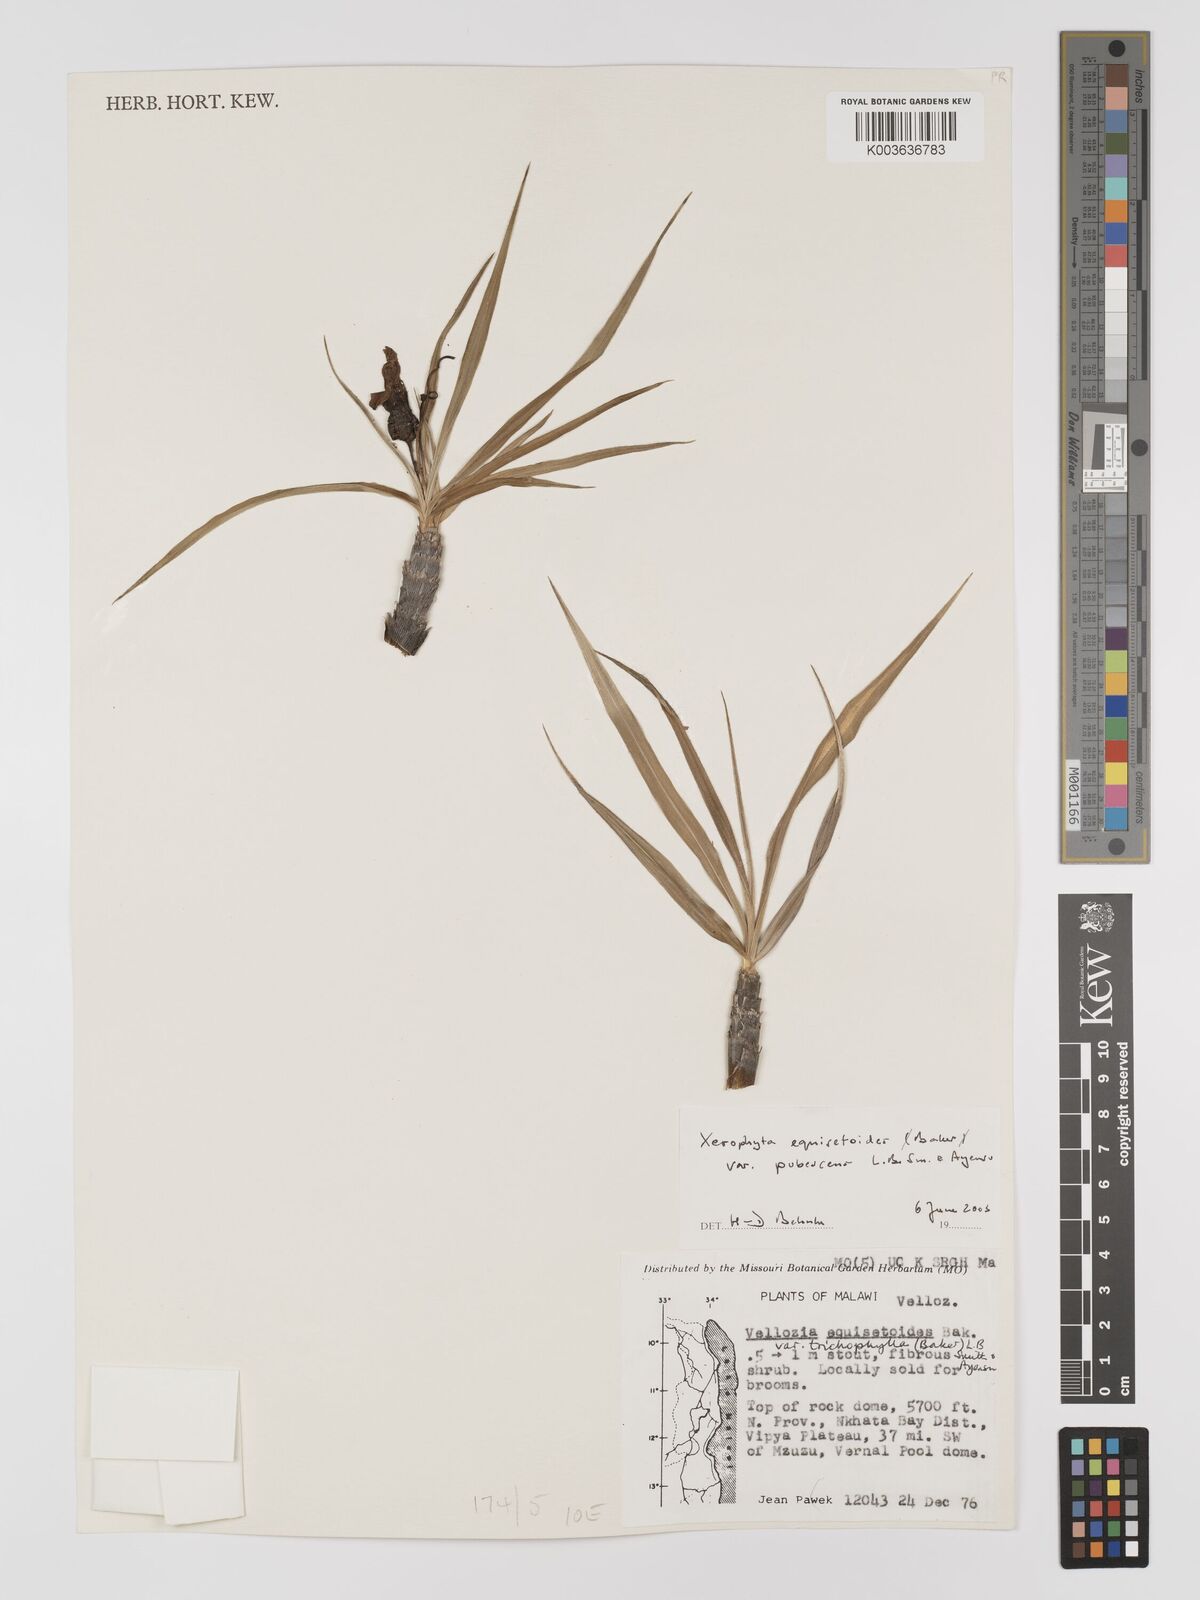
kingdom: Plantae
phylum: Tracheophyta
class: Liliopsida
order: Pandanales
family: Velloziaceae
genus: Xerophyta
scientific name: Xerophyta wentzeliana
